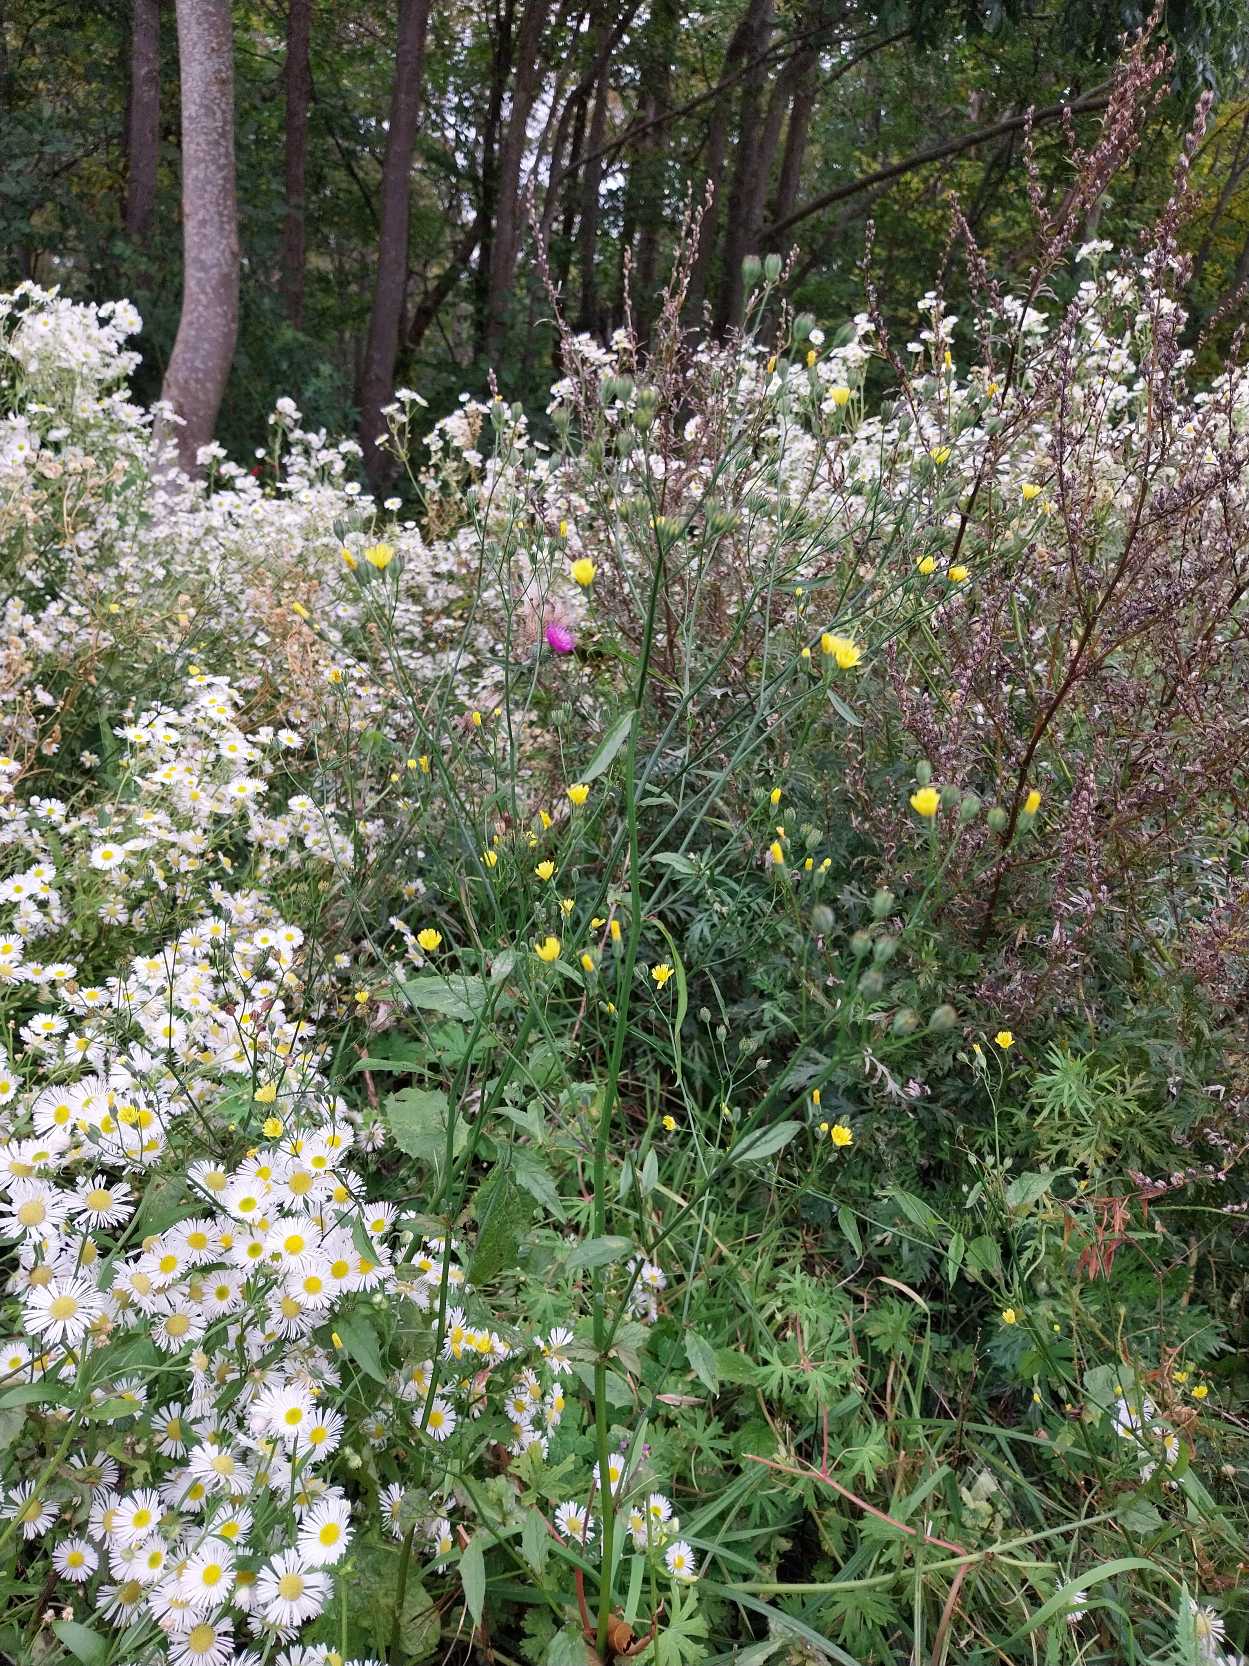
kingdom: Plantae
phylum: Tracheophyta
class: Magnoliopsida
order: Asterales
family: Asteraceae
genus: Lapsana
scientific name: Lapsana communis
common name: Haremad
